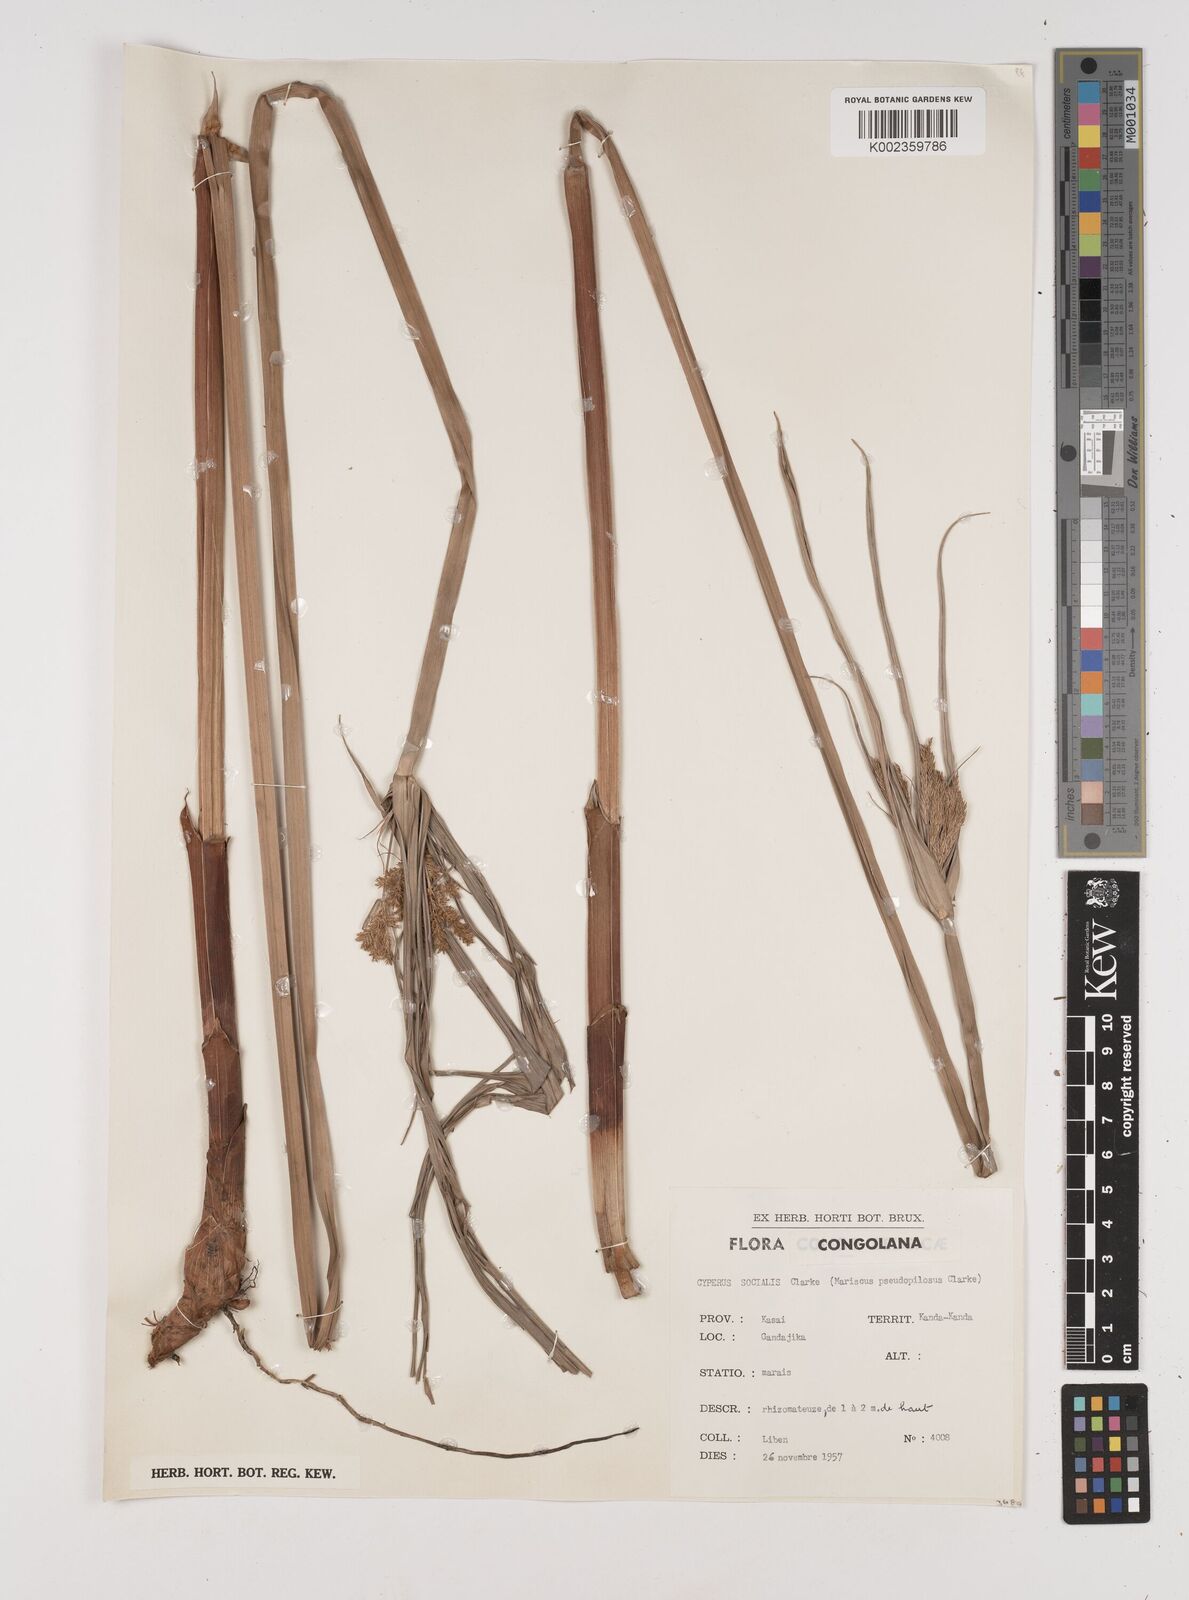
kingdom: Plantae
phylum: Tracheophyta
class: Liliopsida
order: Poales
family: Cyperaceae
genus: Cyperus
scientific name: Cyperus pseudopilosus
